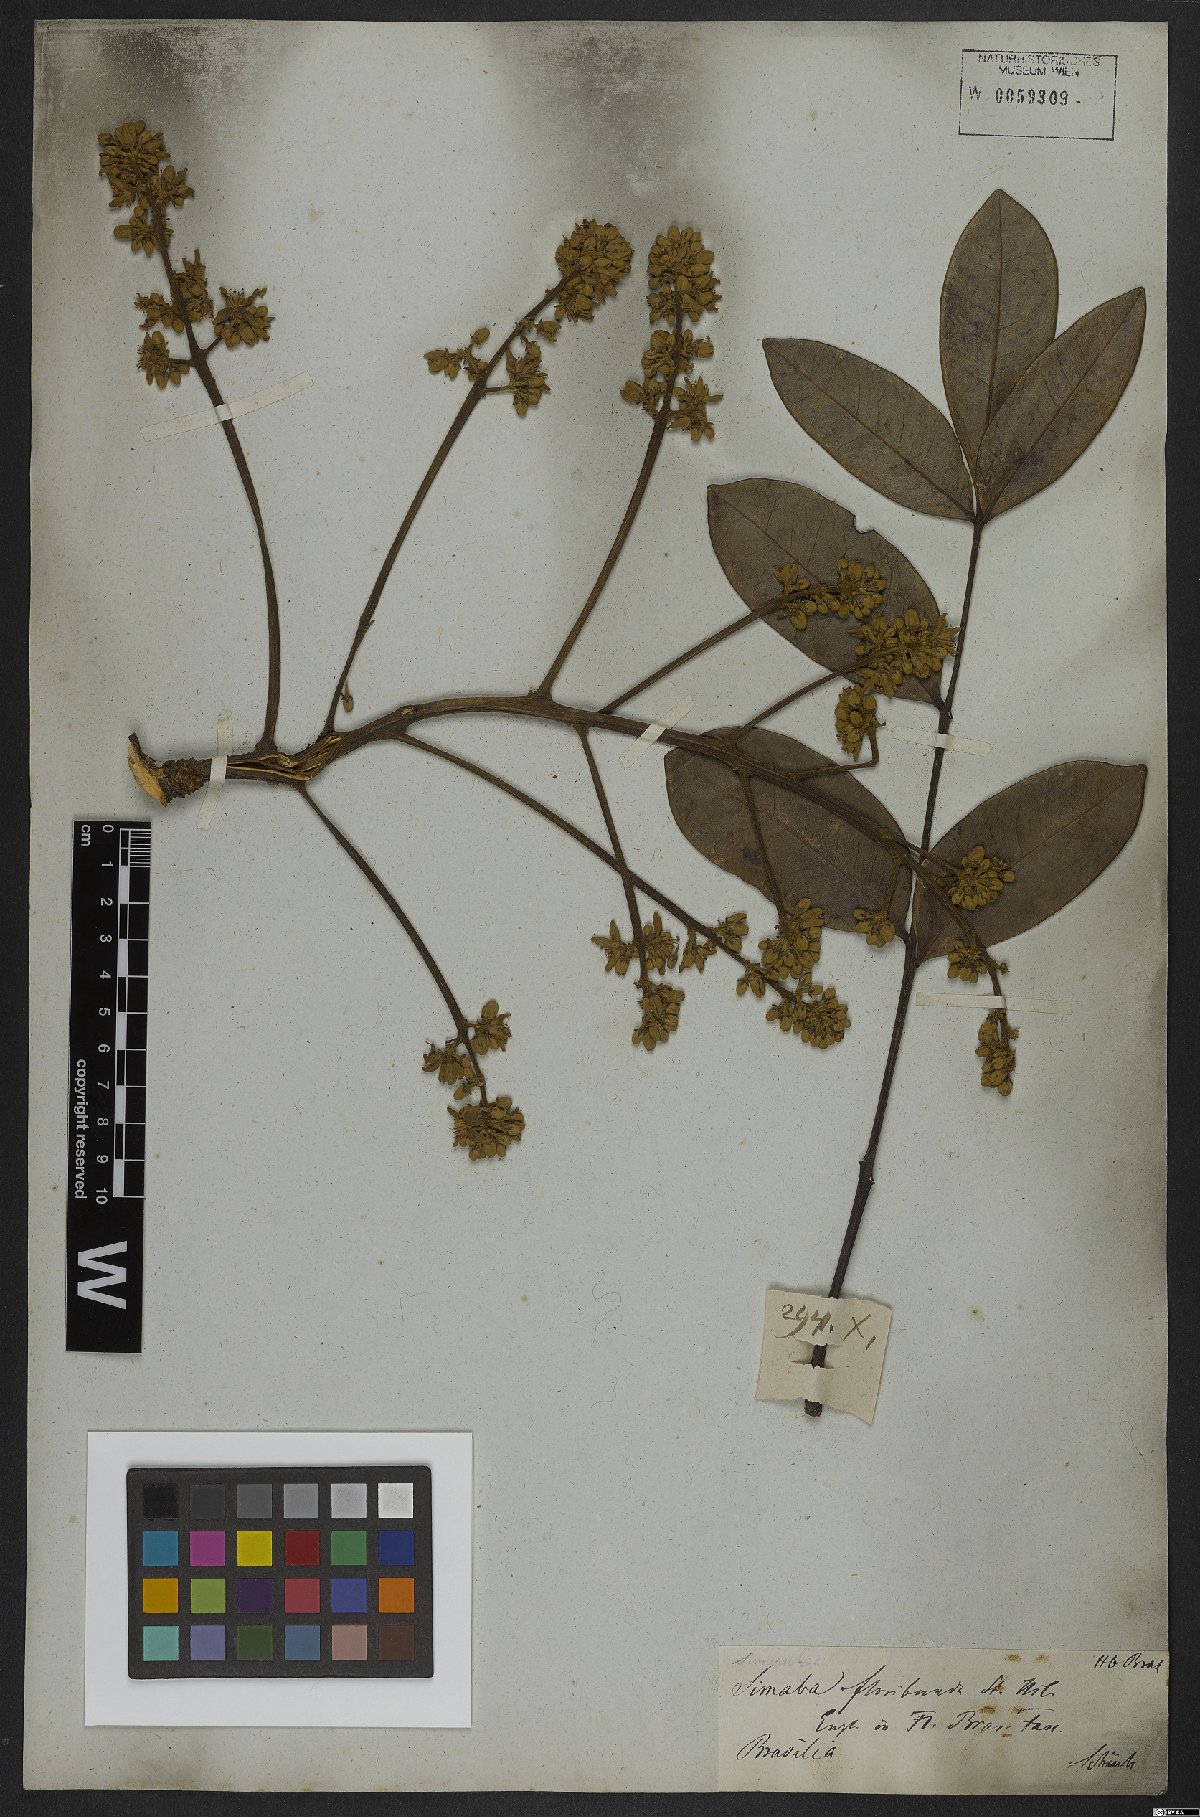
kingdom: Plantae
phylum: Tracheophyta
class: Magnoliopsida
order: Sapindales
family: Simaroubaceae
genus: Homalolepis
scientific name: Homalolepis floribunda
